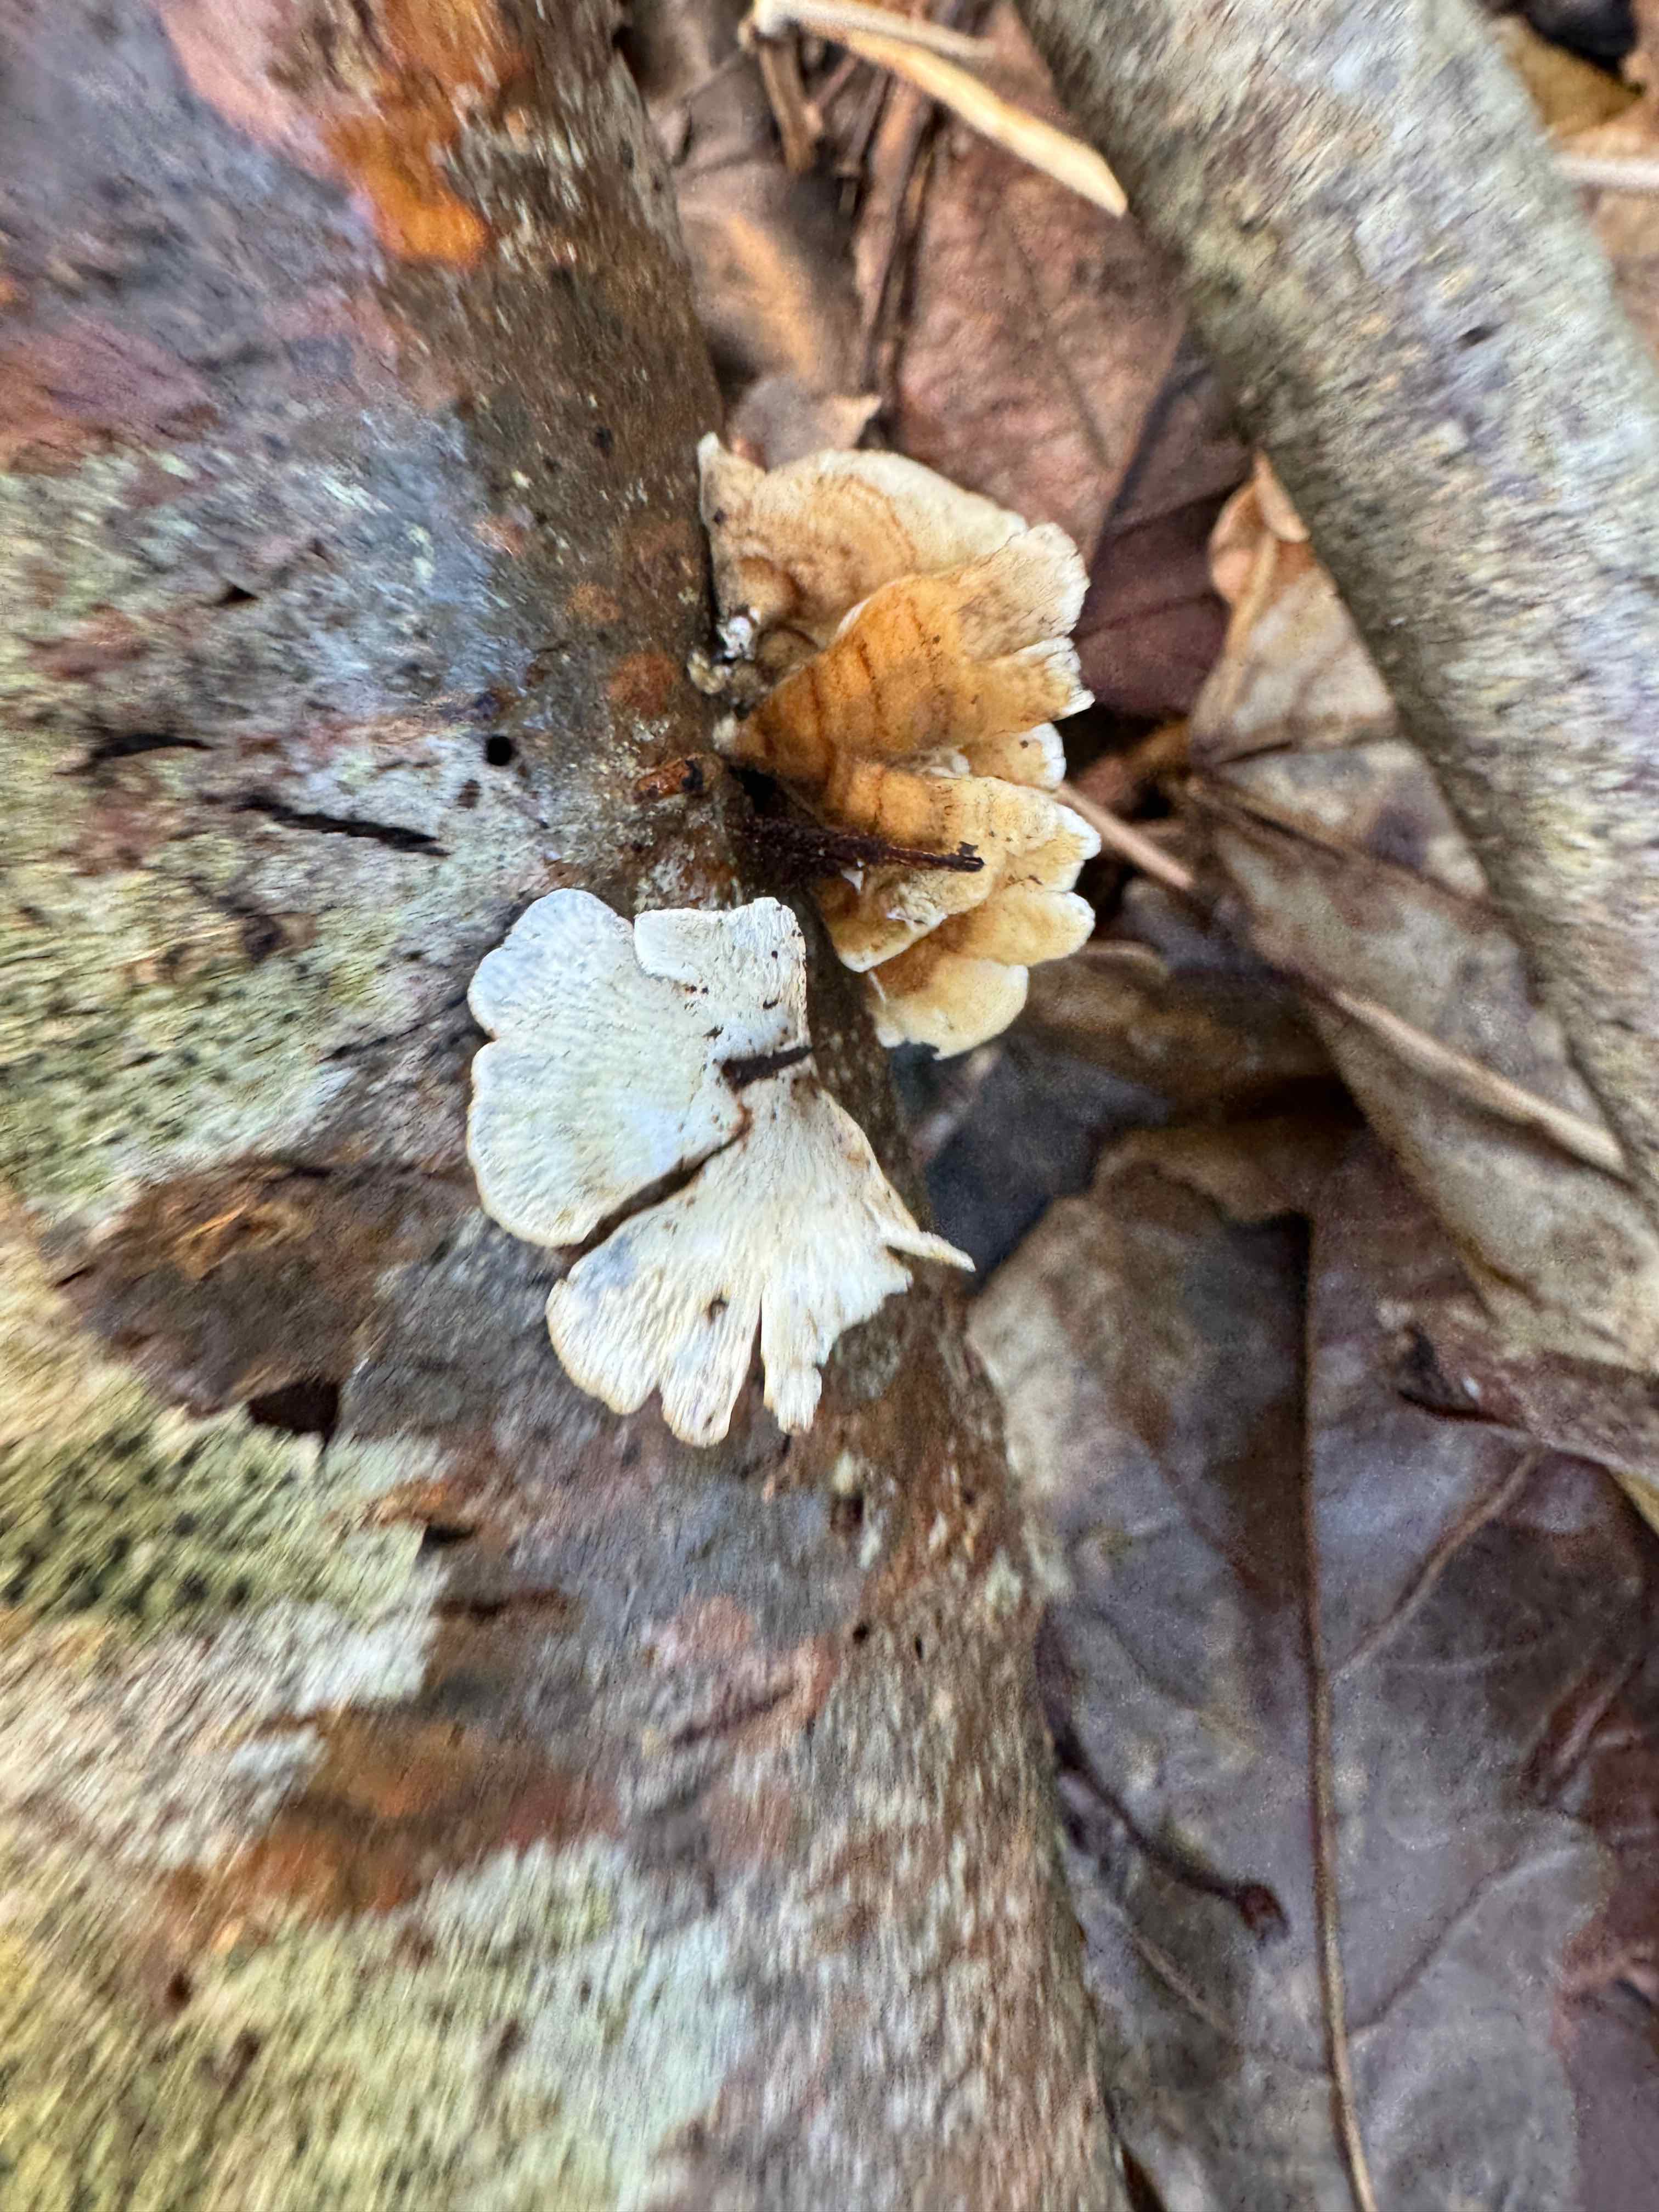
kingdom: Fungi
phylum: Basidiomycota
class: Agaricomycetes
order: Amylocorticiales
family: Amylocorticiaceae
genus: Plicaturopsis
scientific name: Plicaturopsis crispa
